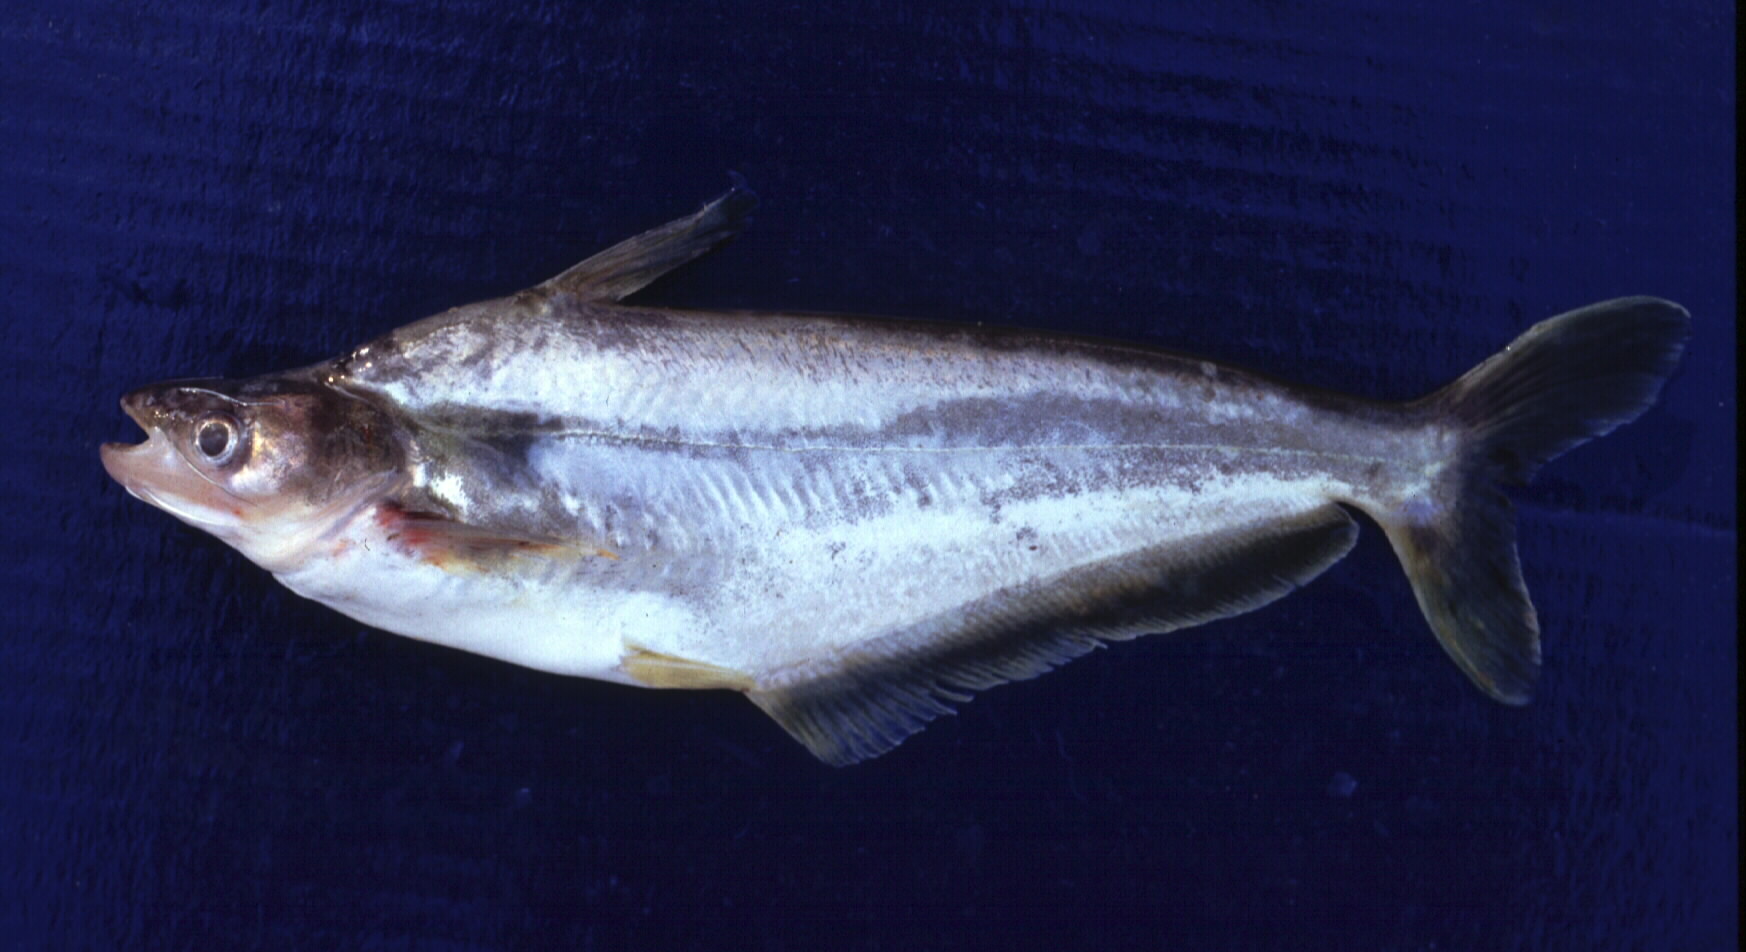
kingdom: Animalia
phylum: Chordata
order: Siluriformes
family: Schilbeidae
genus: Schilbe
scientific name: Schilbe intermedius
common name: Silver catfish
